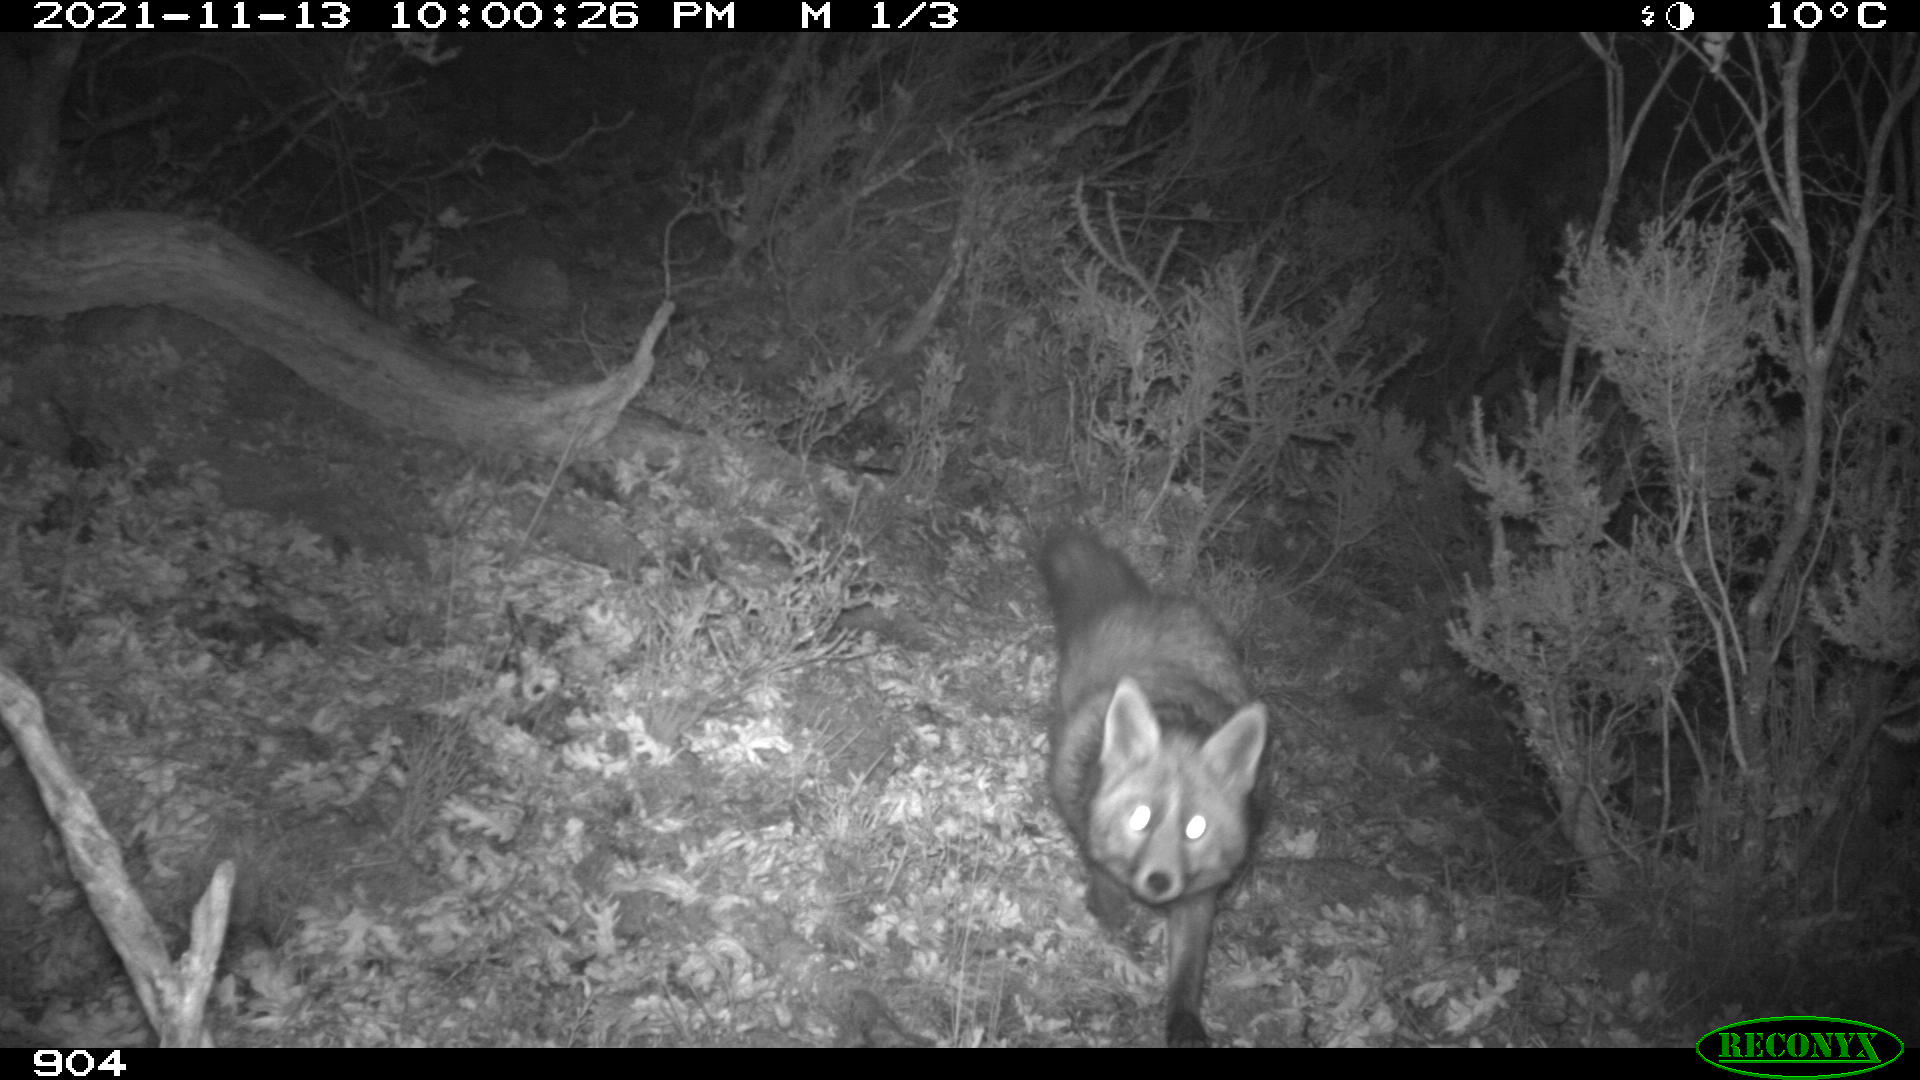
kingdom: Animalia
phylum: Chordata
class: Mammalia
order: Carnivora
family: Canidae
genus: Vulpes
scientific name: Vulpes vulpes
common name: Red fox
